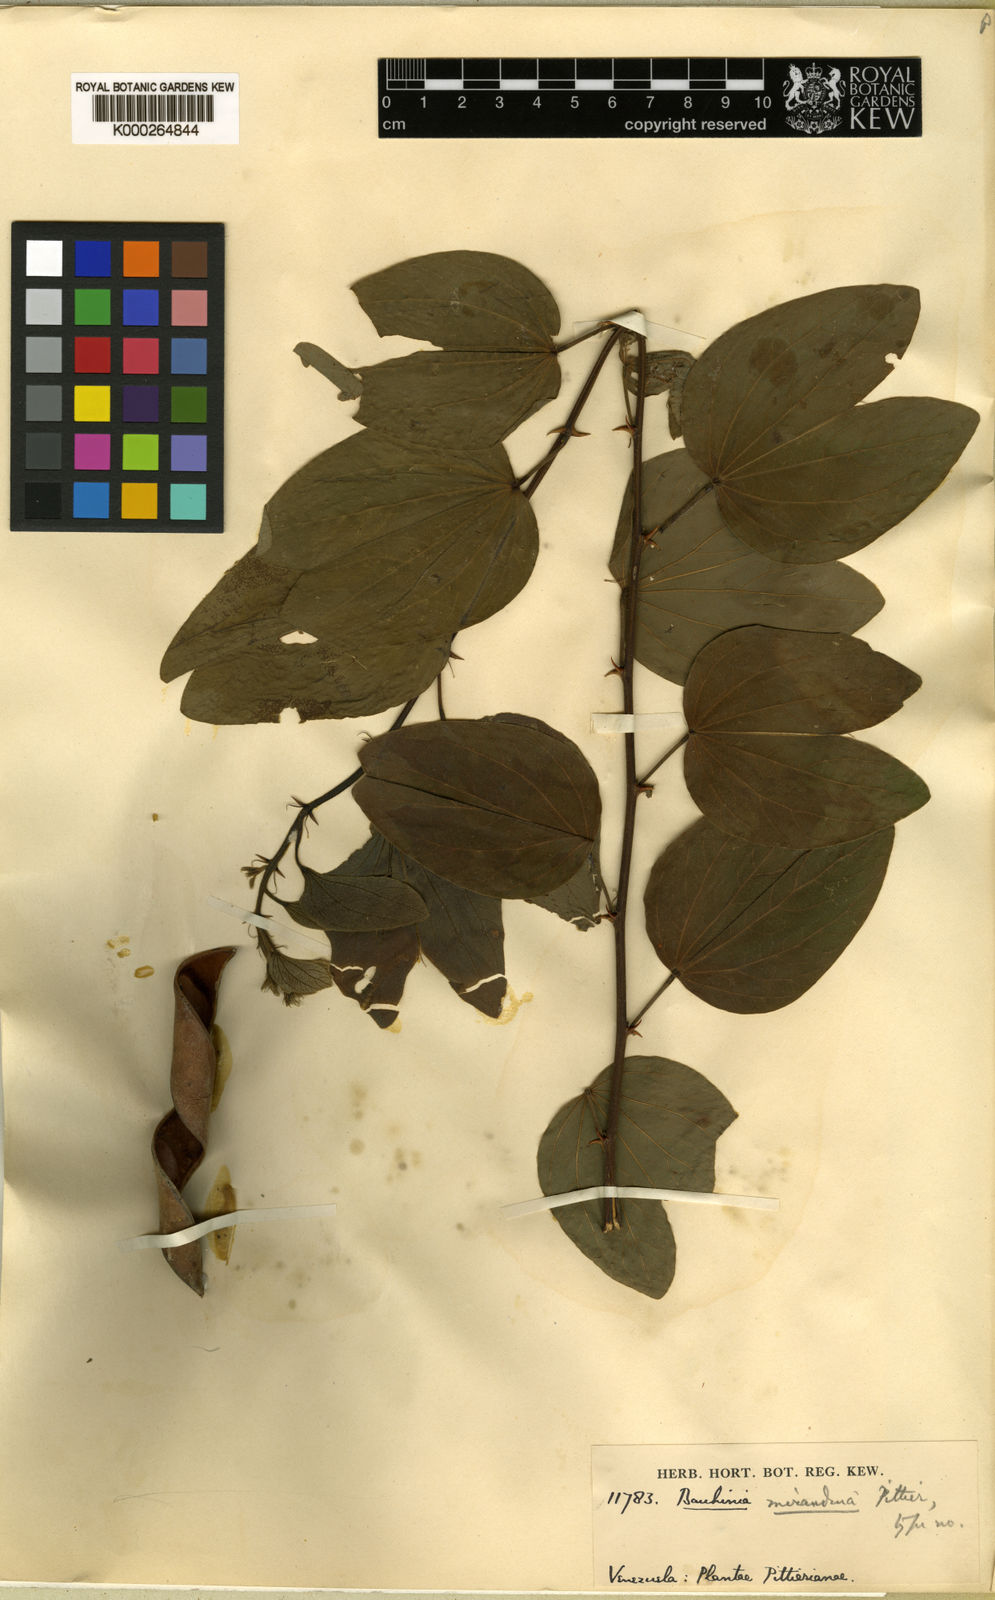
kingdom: Plantae
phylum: Tracheophyta
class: Magnoliopsida
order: Fabales
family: Fabaceae
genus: Bauhinia
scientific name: Bauhinia aculeata
